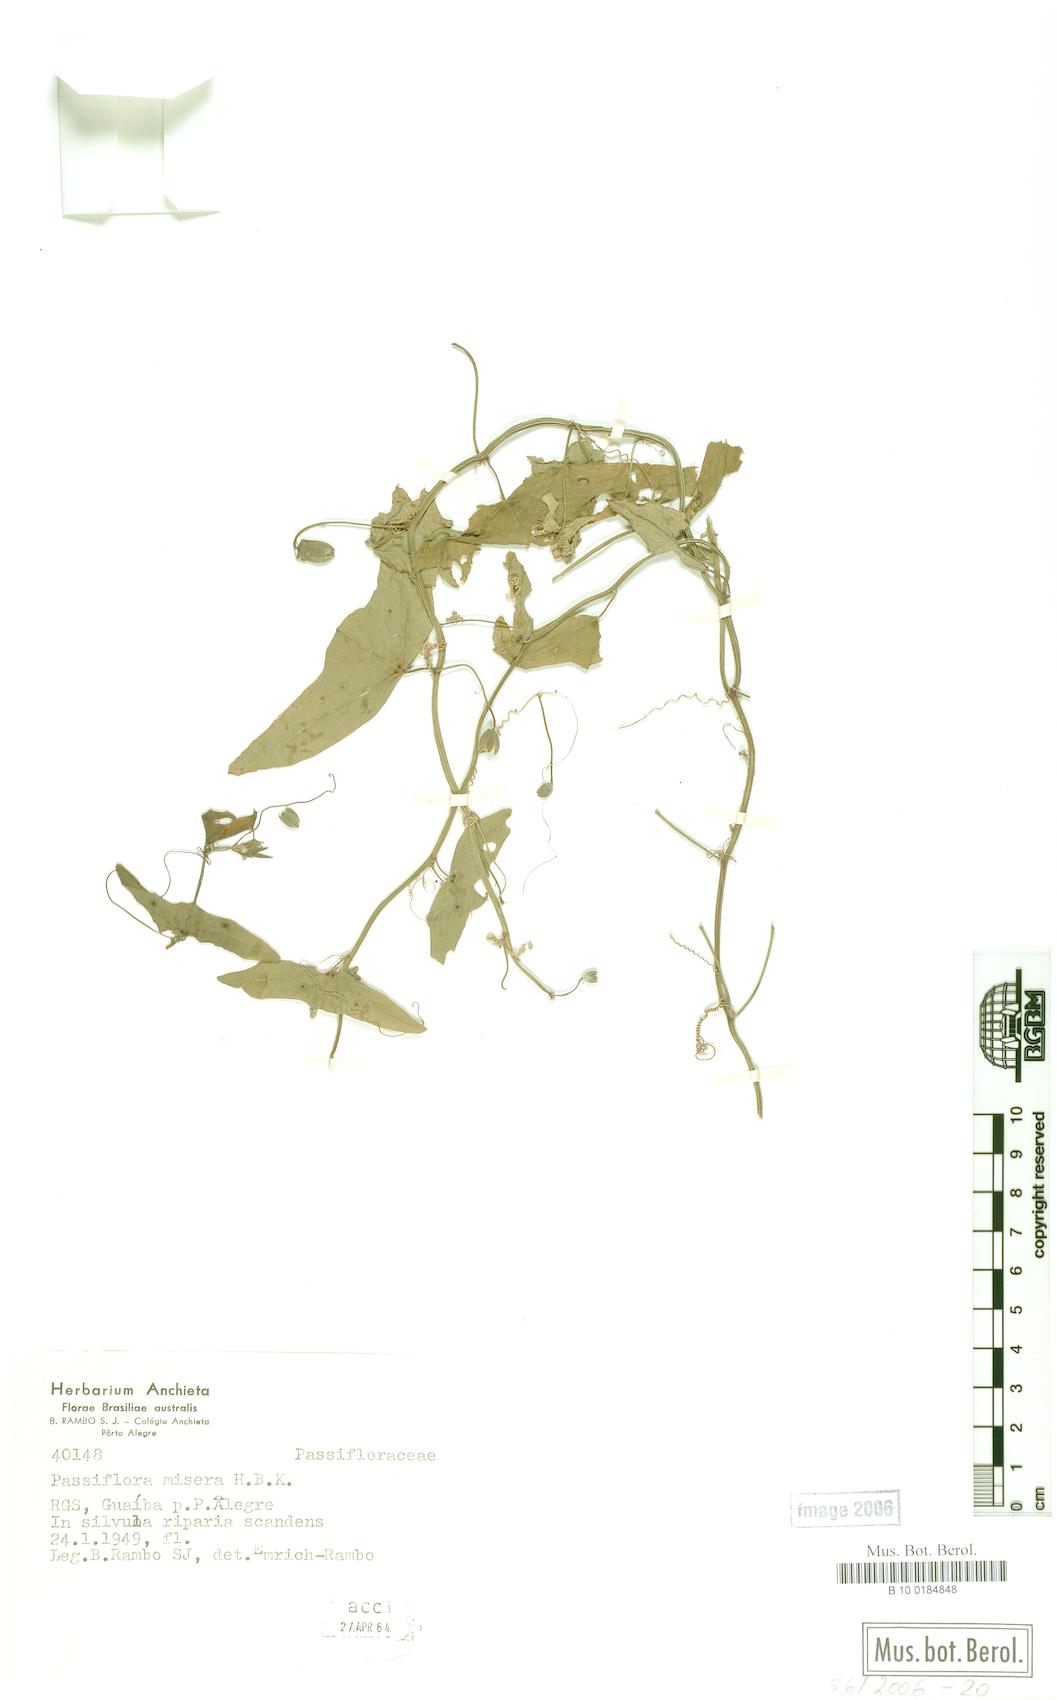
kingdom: Plantae
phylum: Tracheophyta
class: Magnoliopsida
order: Malpighiales
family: Passifloraceae
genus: Passiflora
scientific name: Passiflora misera
